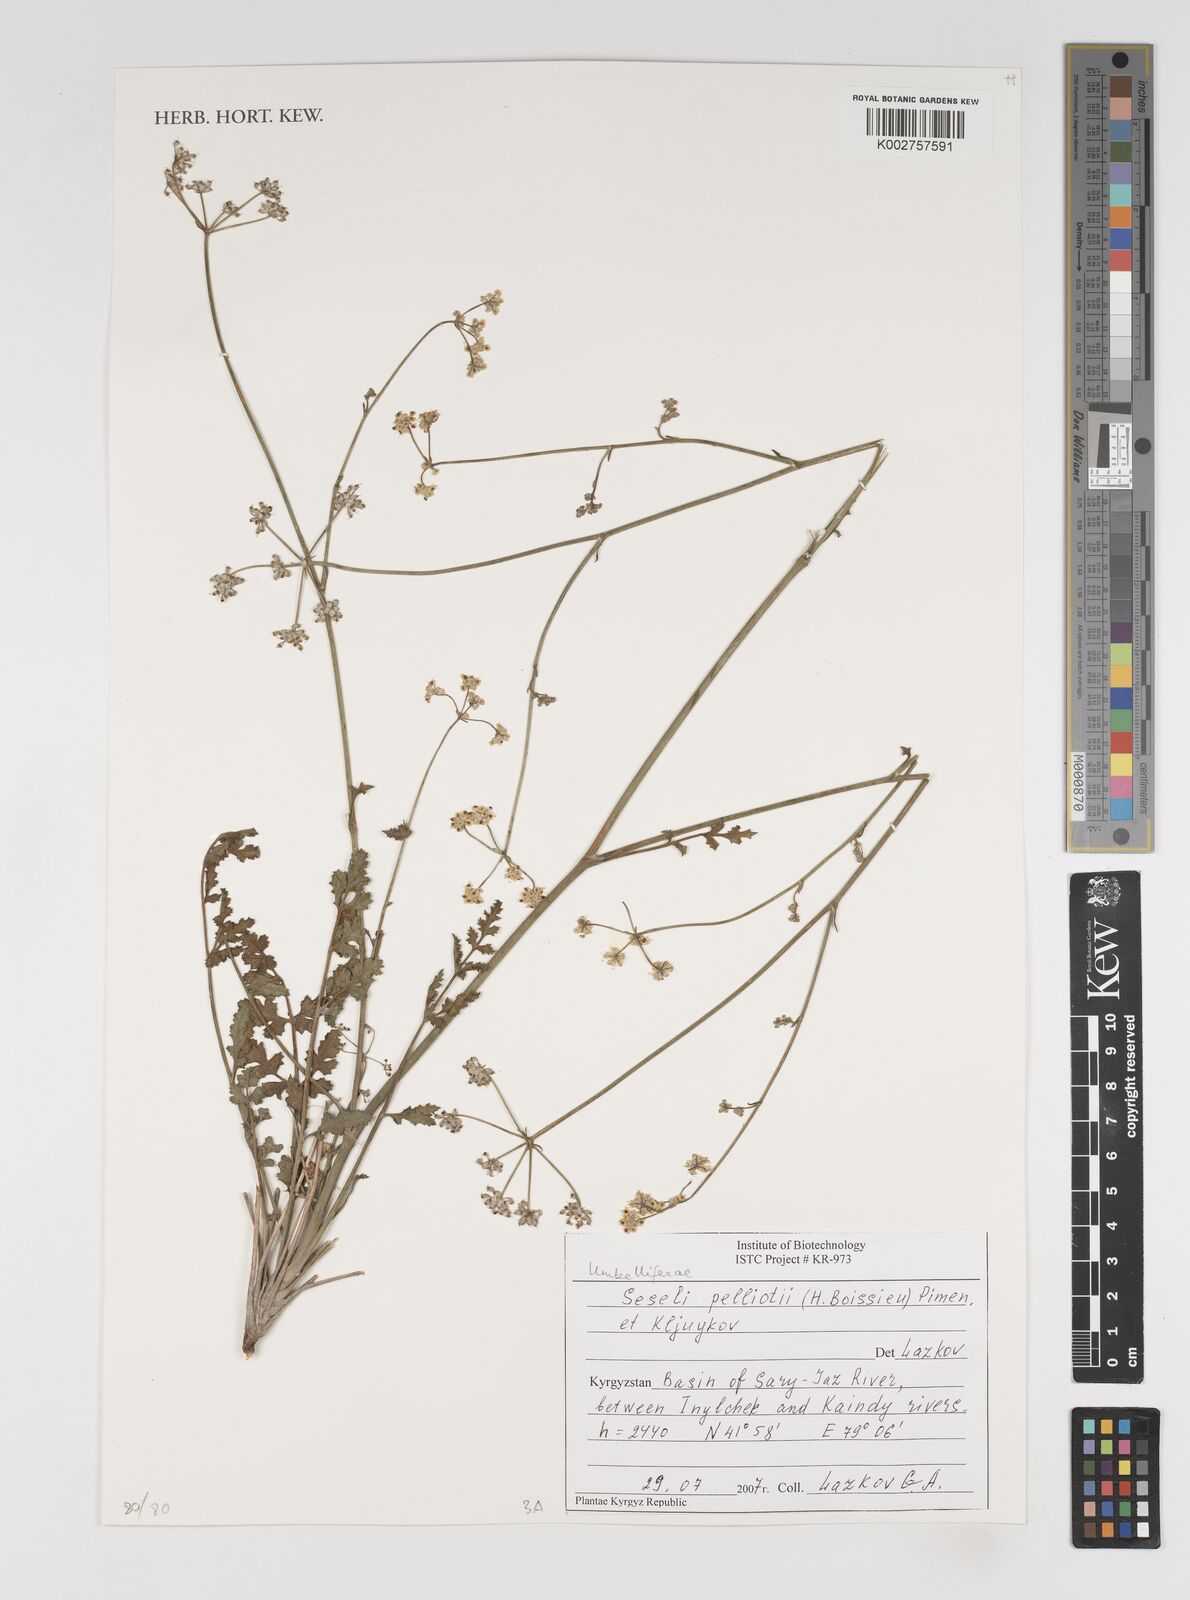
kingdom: Plantae
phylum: Tracheophyta
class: Magnoliopsida
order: Apiales
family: Apiaceae
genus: Seseli
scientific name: Seseli pelliotii
